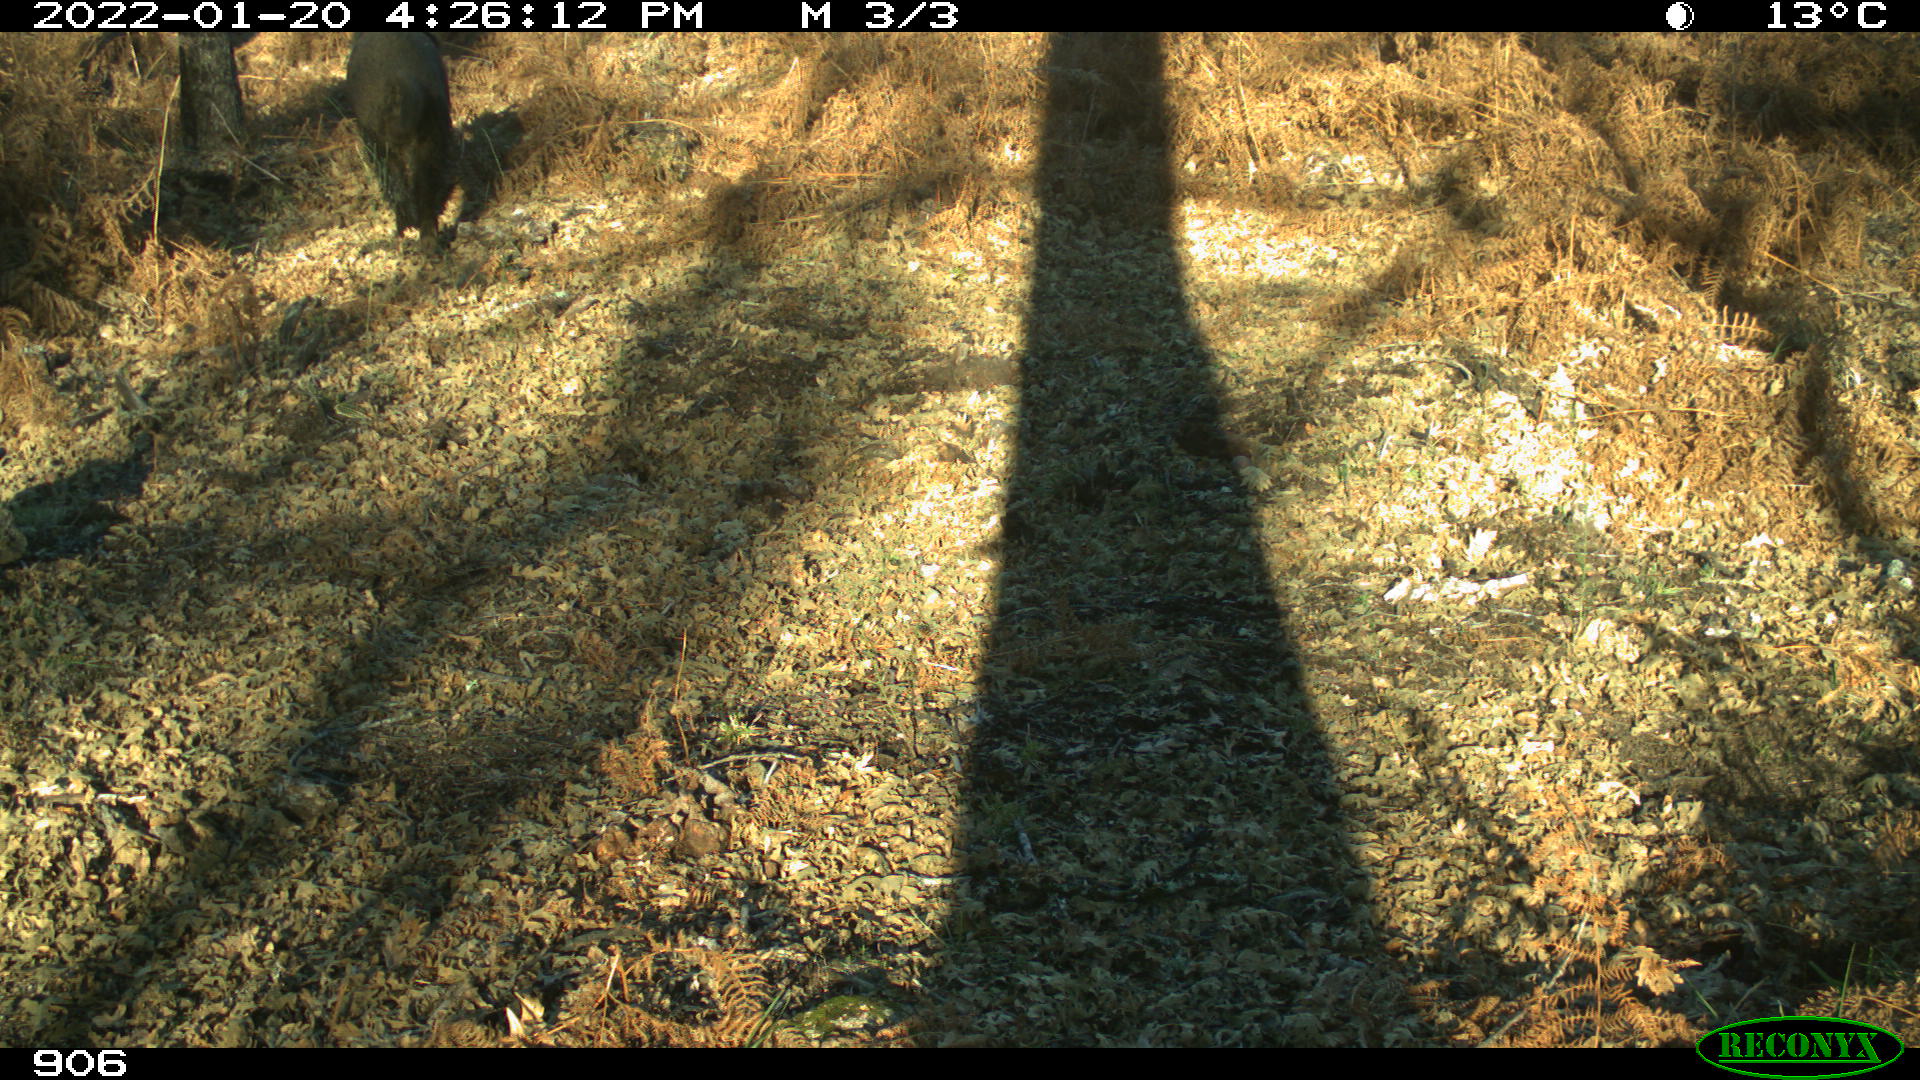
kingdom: Animalia
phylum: Chordata
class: Mammalia
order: Artiodactyla
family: Suidae
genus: Sus
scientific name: Sus scrofa
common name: Wild boar
